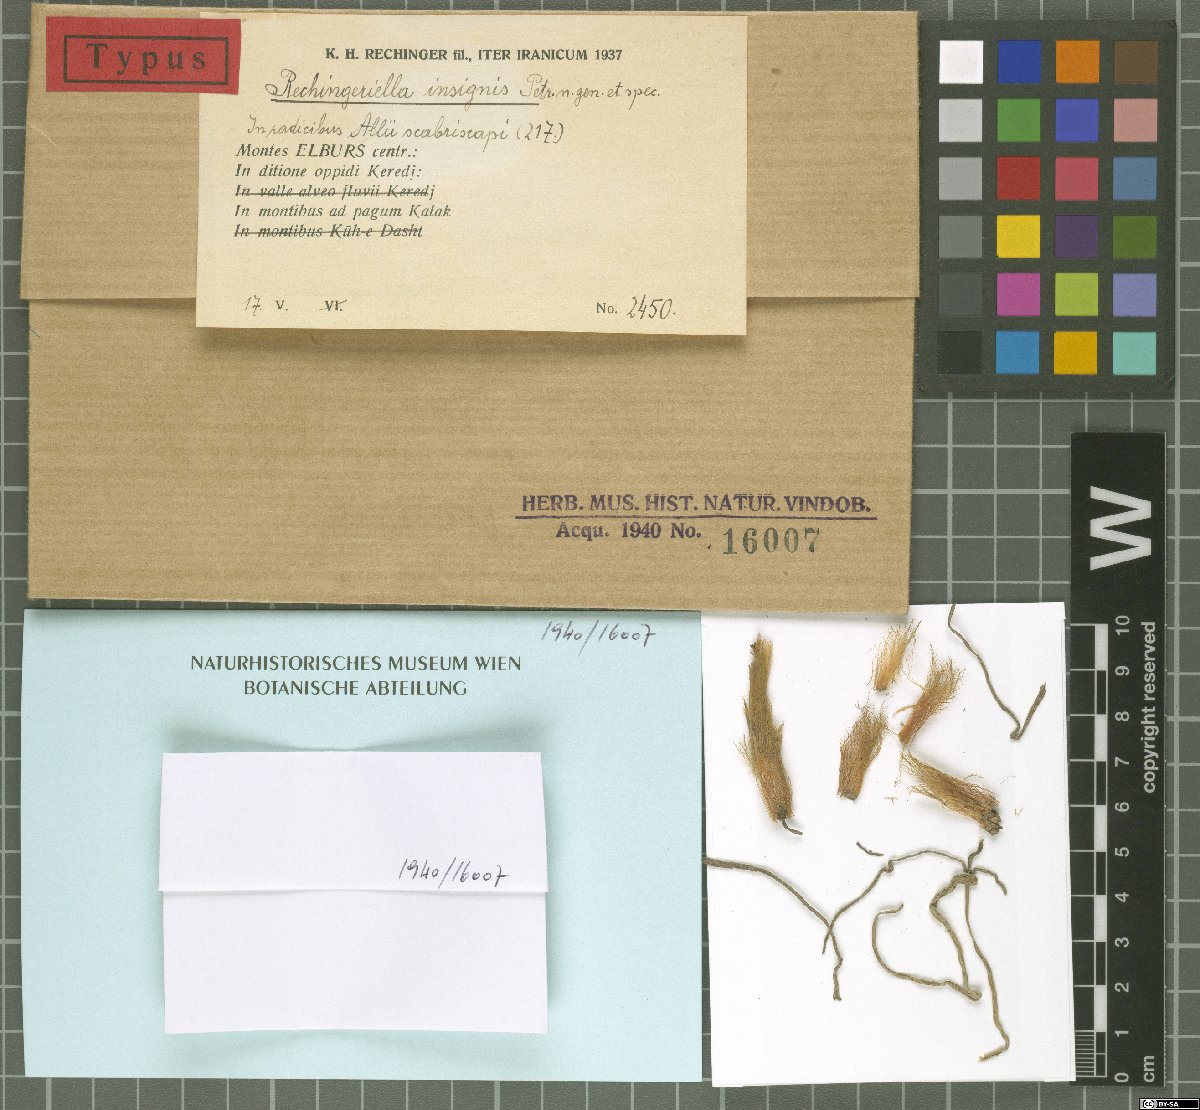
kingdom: Fungi
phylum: Ascomycota
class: Dothideomycetes
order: Pleosporales
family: Zopfiaceae
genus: Rechingeriella
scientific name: Rechingeriella insignis
